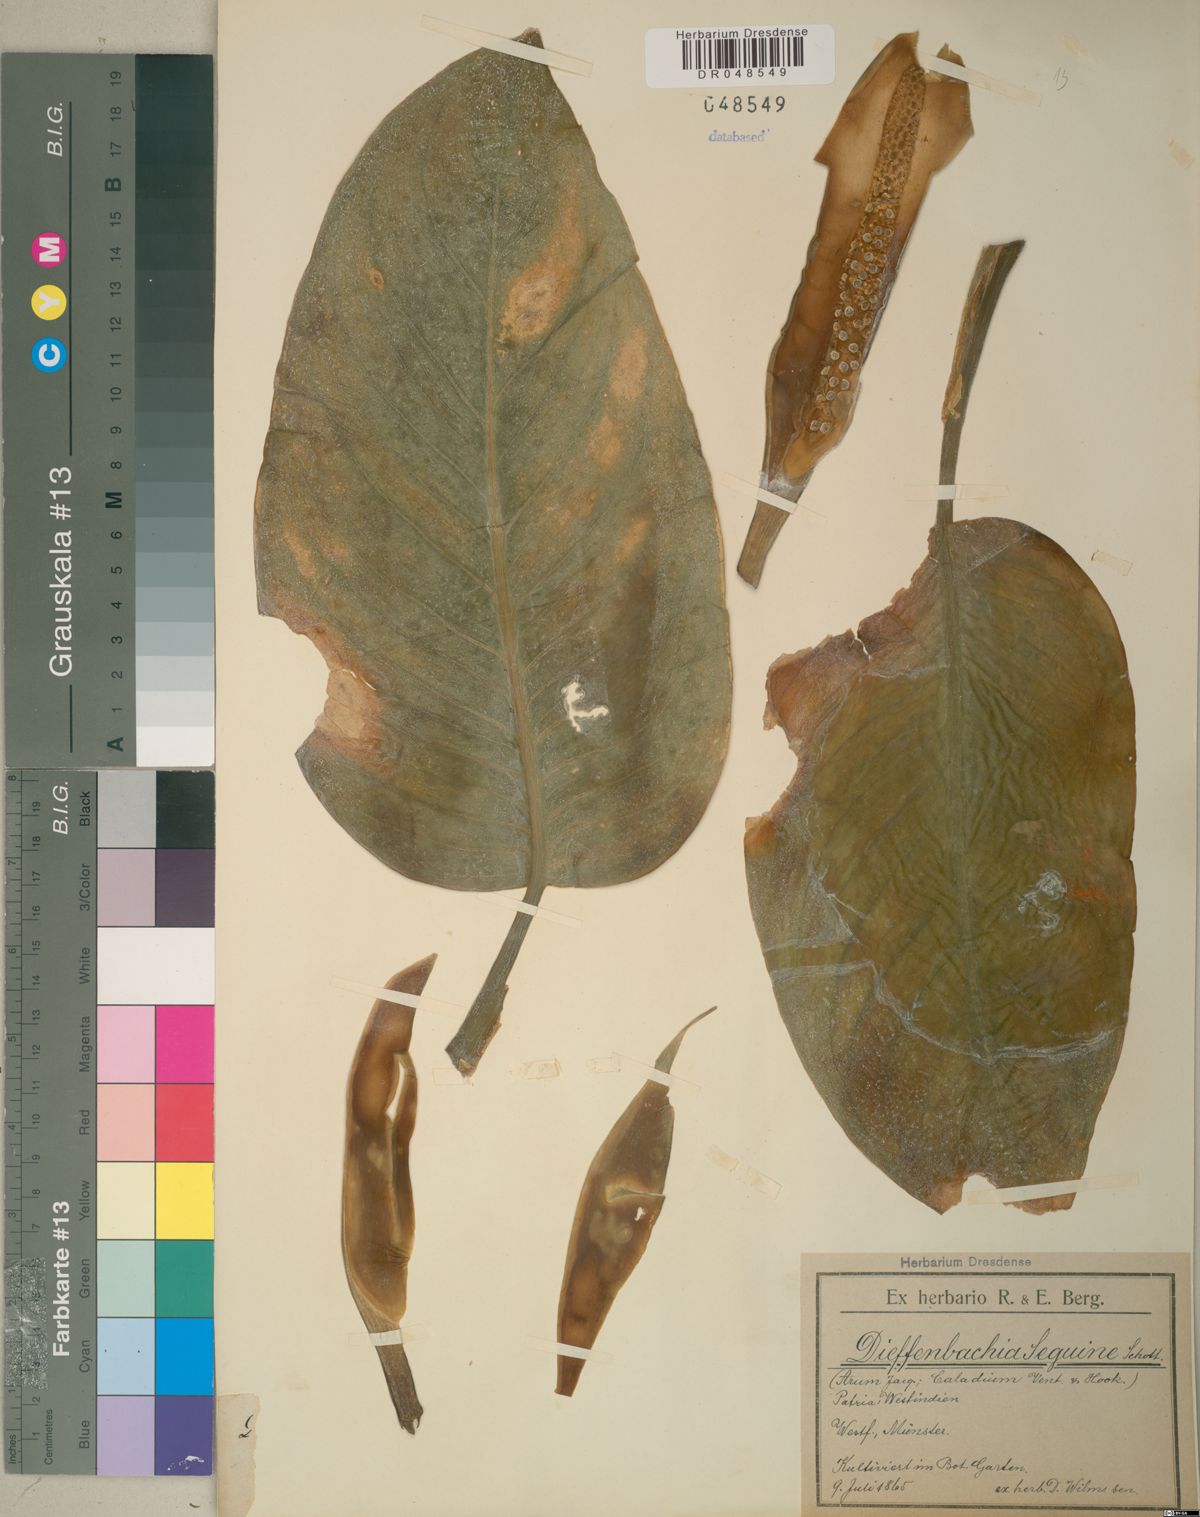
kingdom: Plantae
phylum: Tracheophyta
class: Liliopsida
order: Alismatales
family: Araceae
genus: Dieffenbachia
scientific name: Dieffenbachia seguine
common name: Dumbcane
